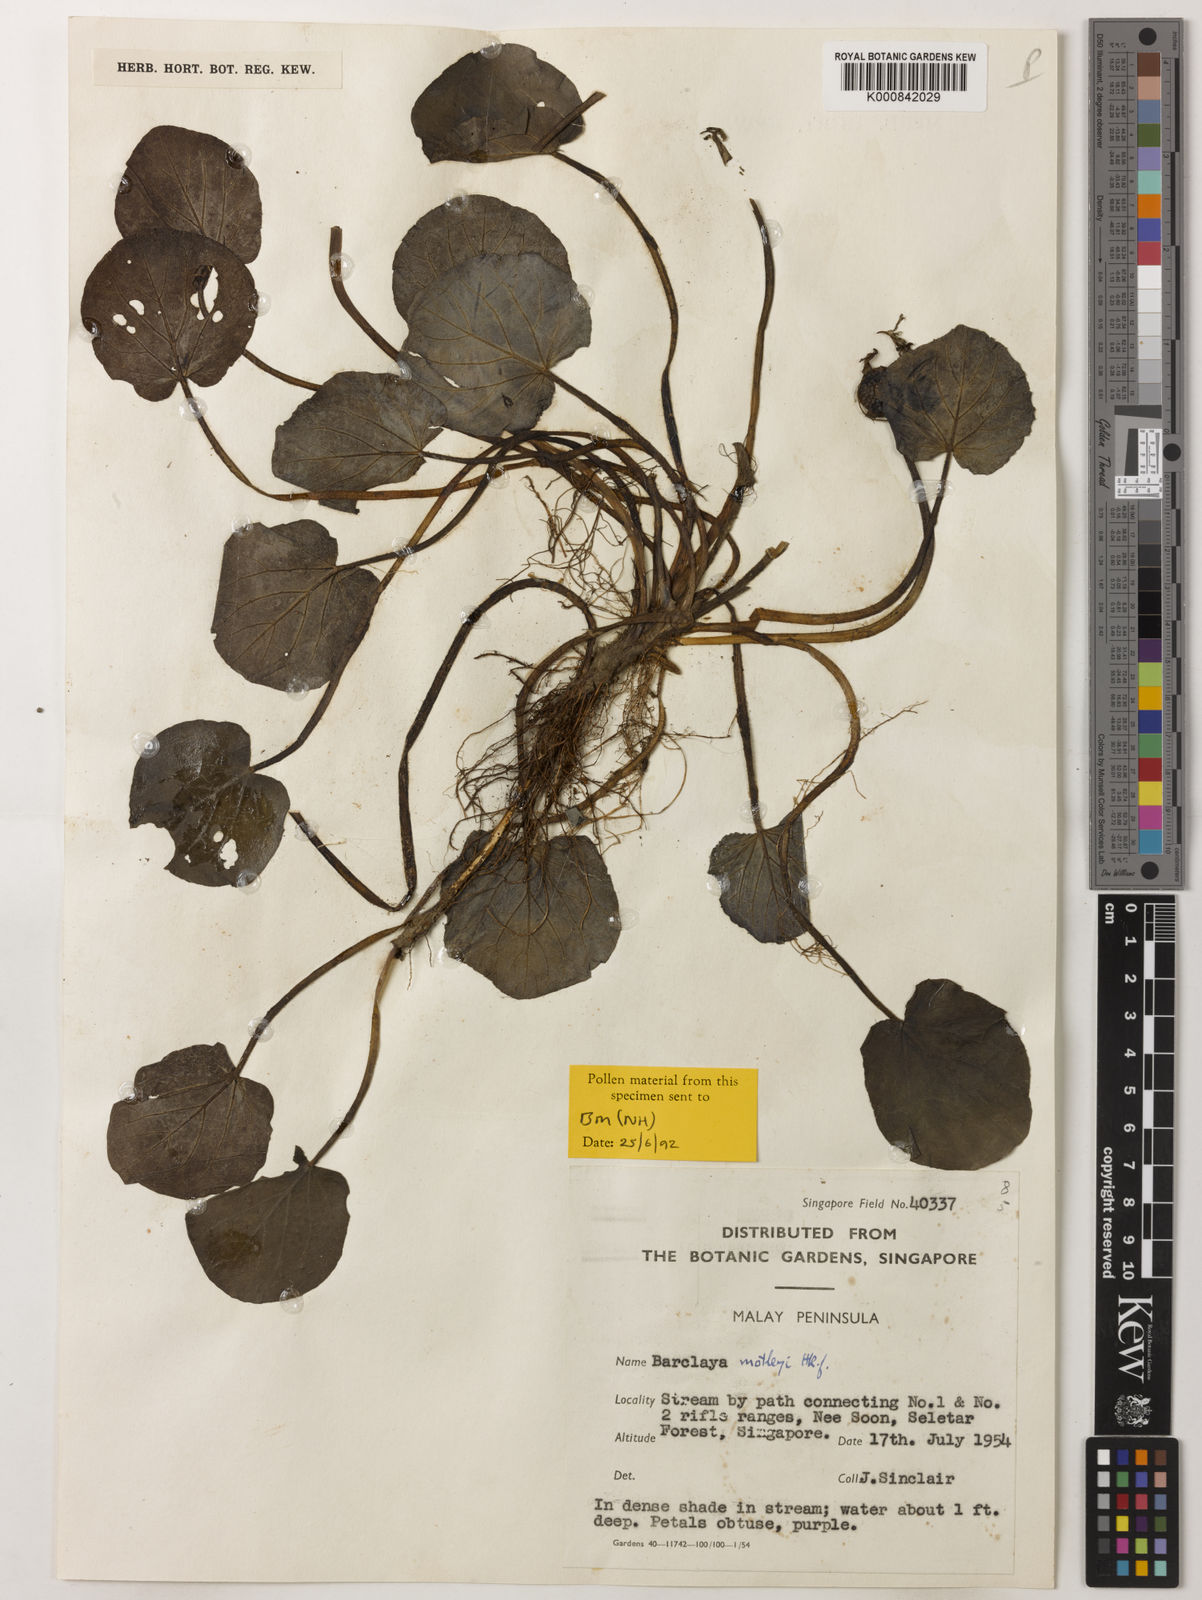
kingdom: Plantae
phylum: Tracheophyta
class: Magnoliopsida
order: Nymphaeales
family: Nymphaeaceae
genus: Barclaya
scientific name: Barclaya motleyi
